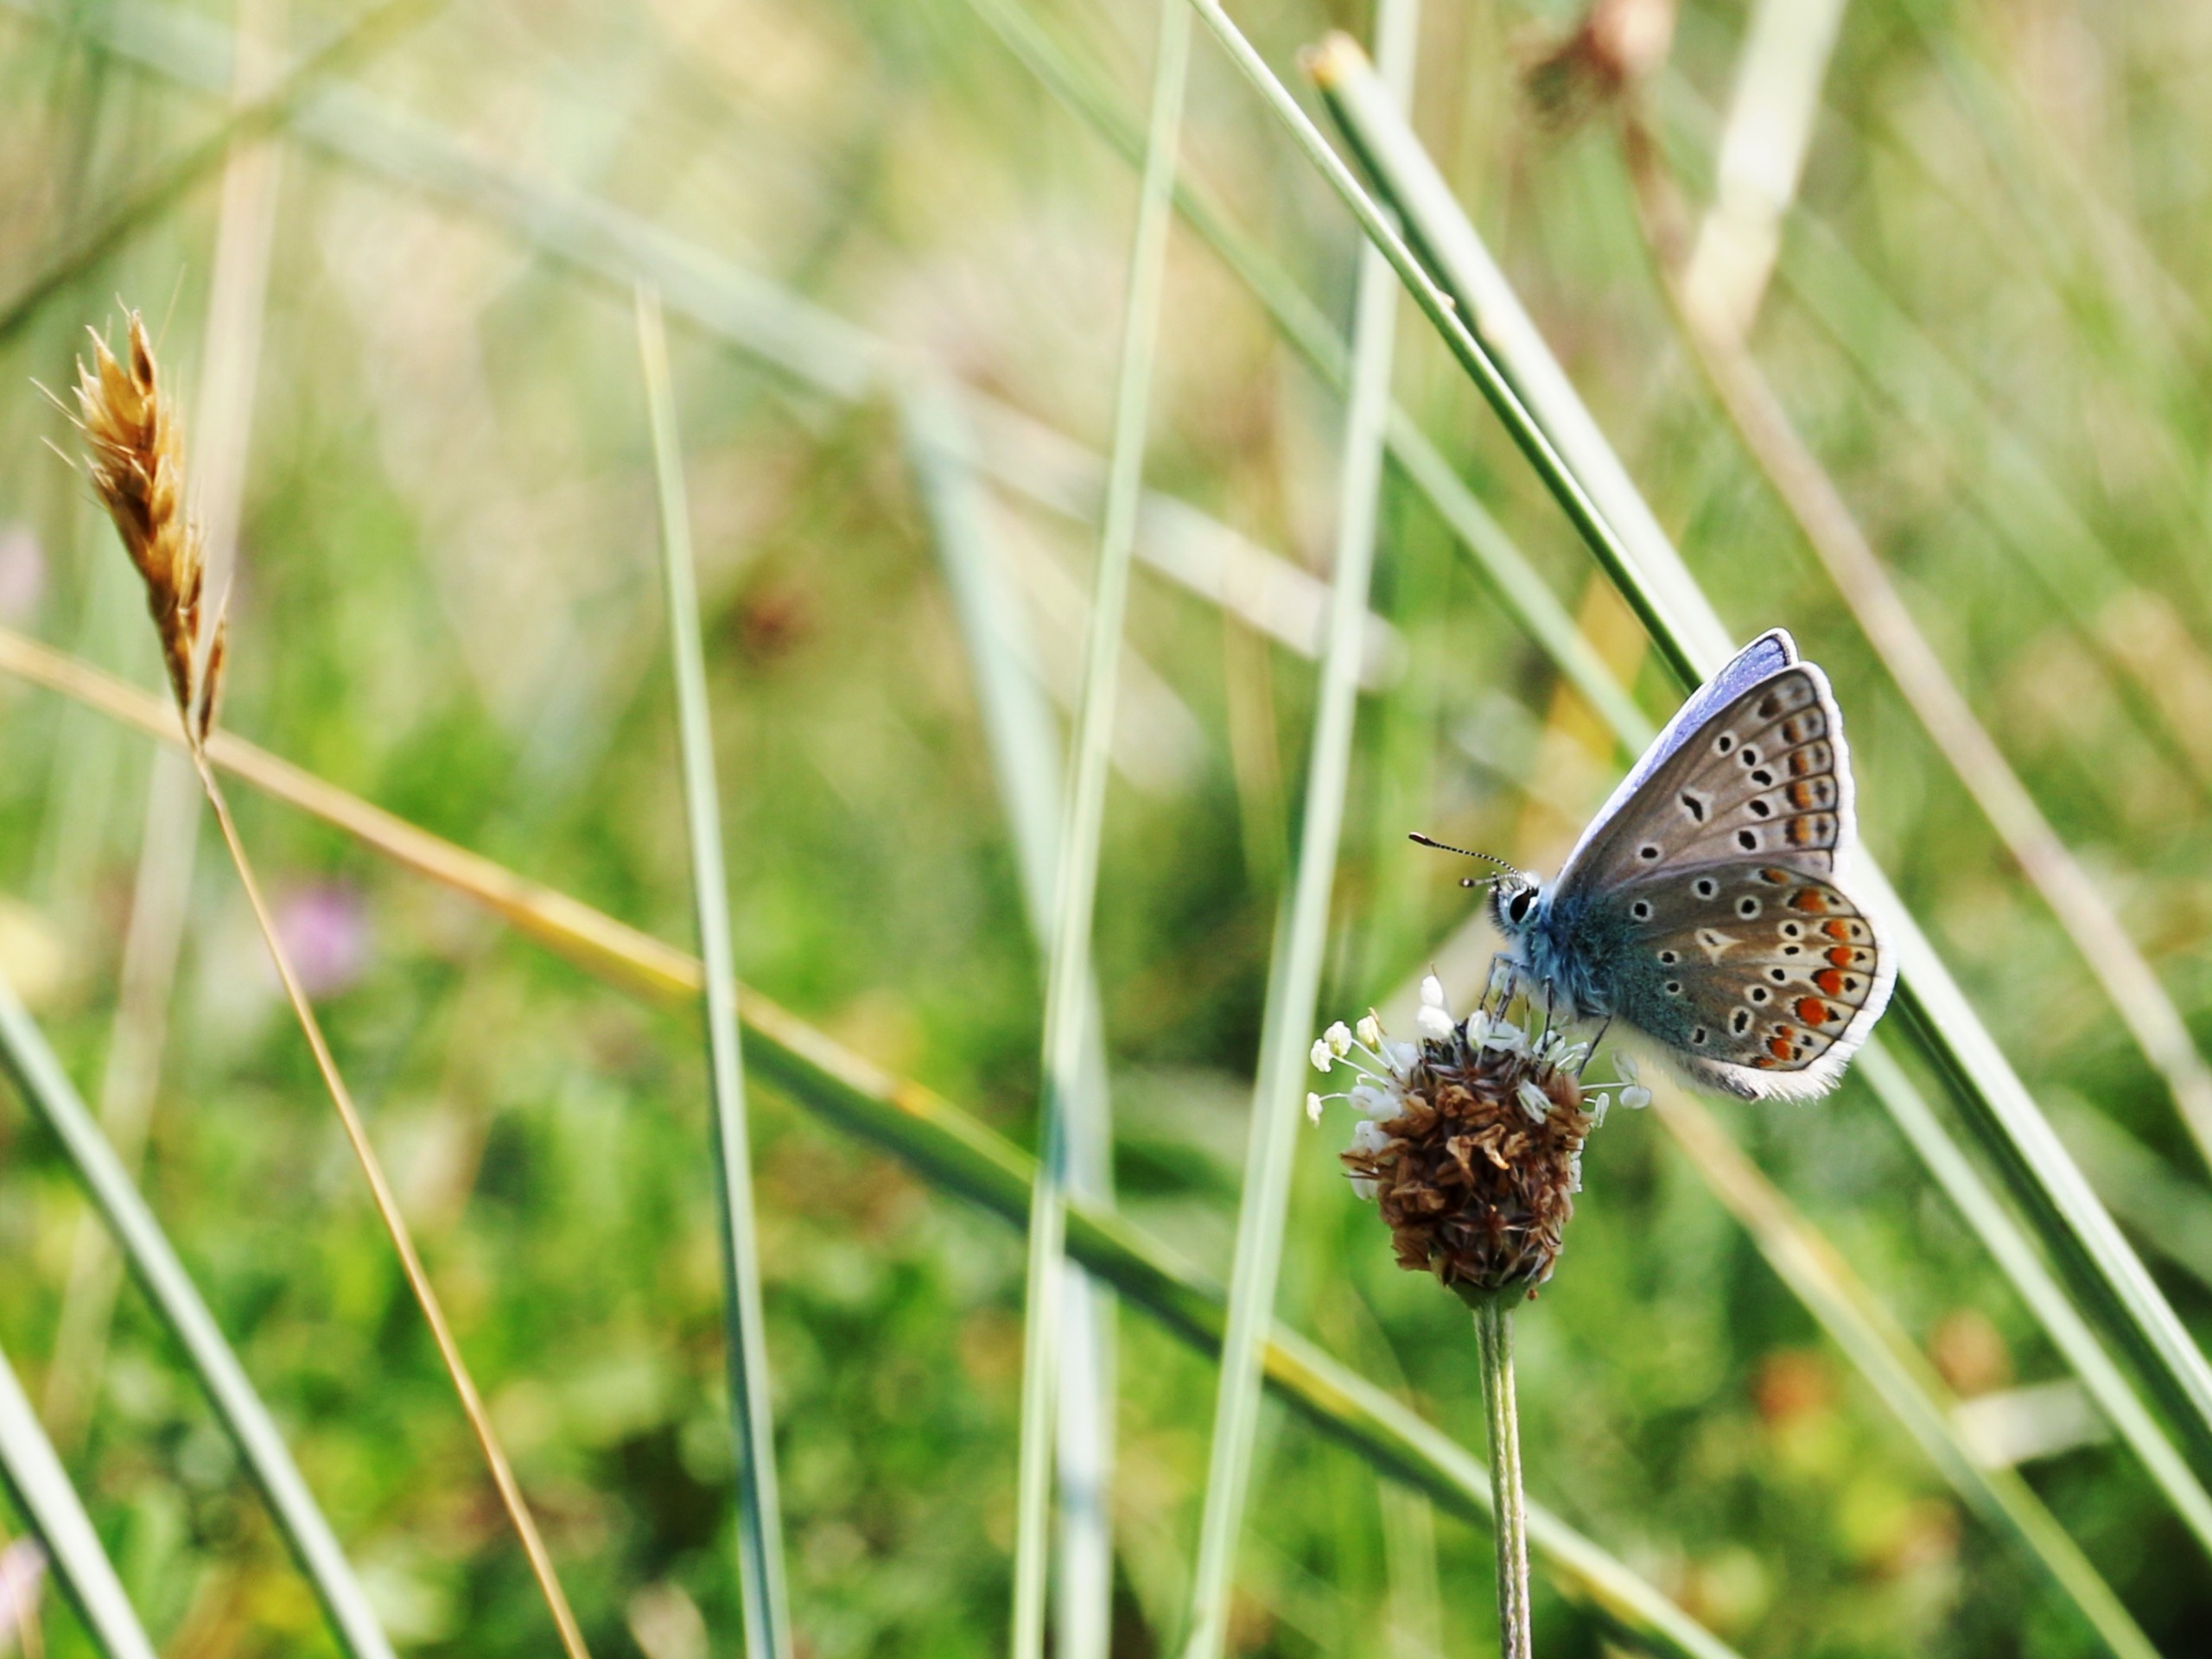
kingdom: Animalia
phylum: Arthropoda
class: Insecta
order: Lepidoptera
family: Lycaenidae
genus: Polyommatus
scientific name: Polyommatus icarus
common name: Almindelig blåfugl
